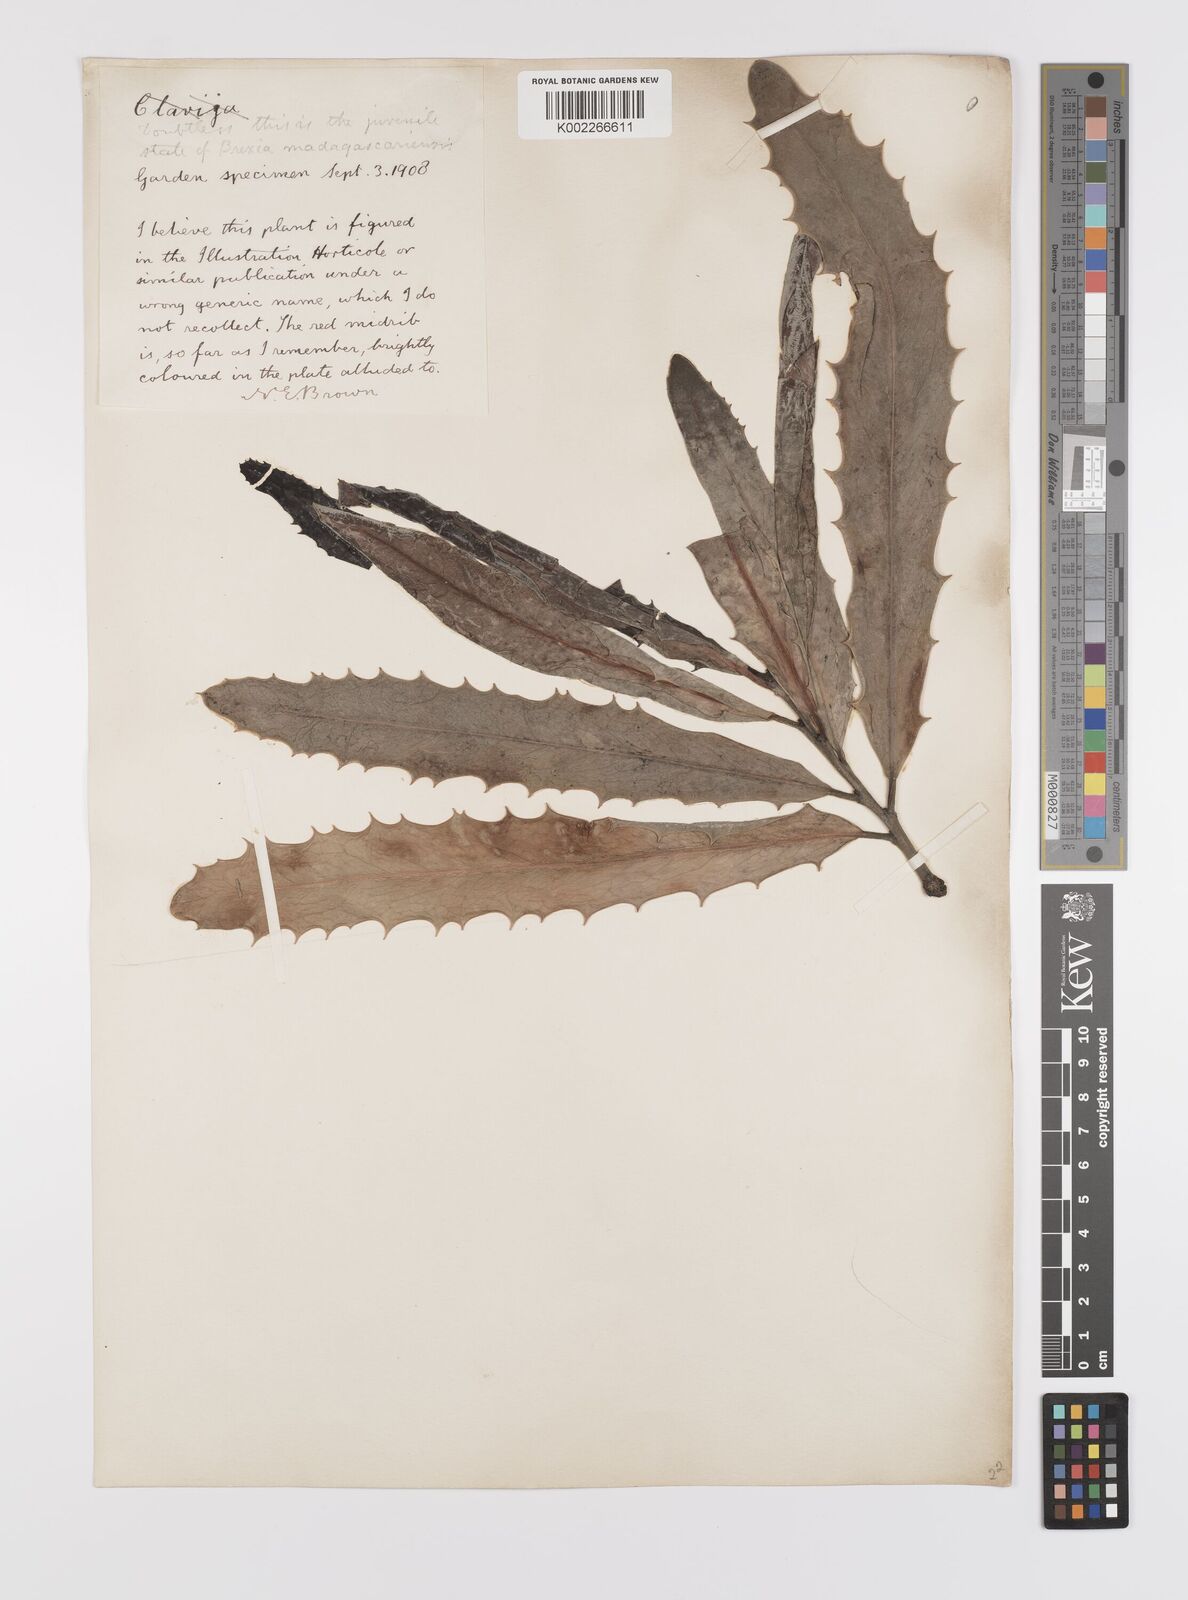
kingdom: Plantae
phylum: Tracheophyta
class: Magnoliopsida
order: Celastrales
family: Celastraceae
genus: Brexia
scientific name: Brexia madagascariensis
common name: Brexia
